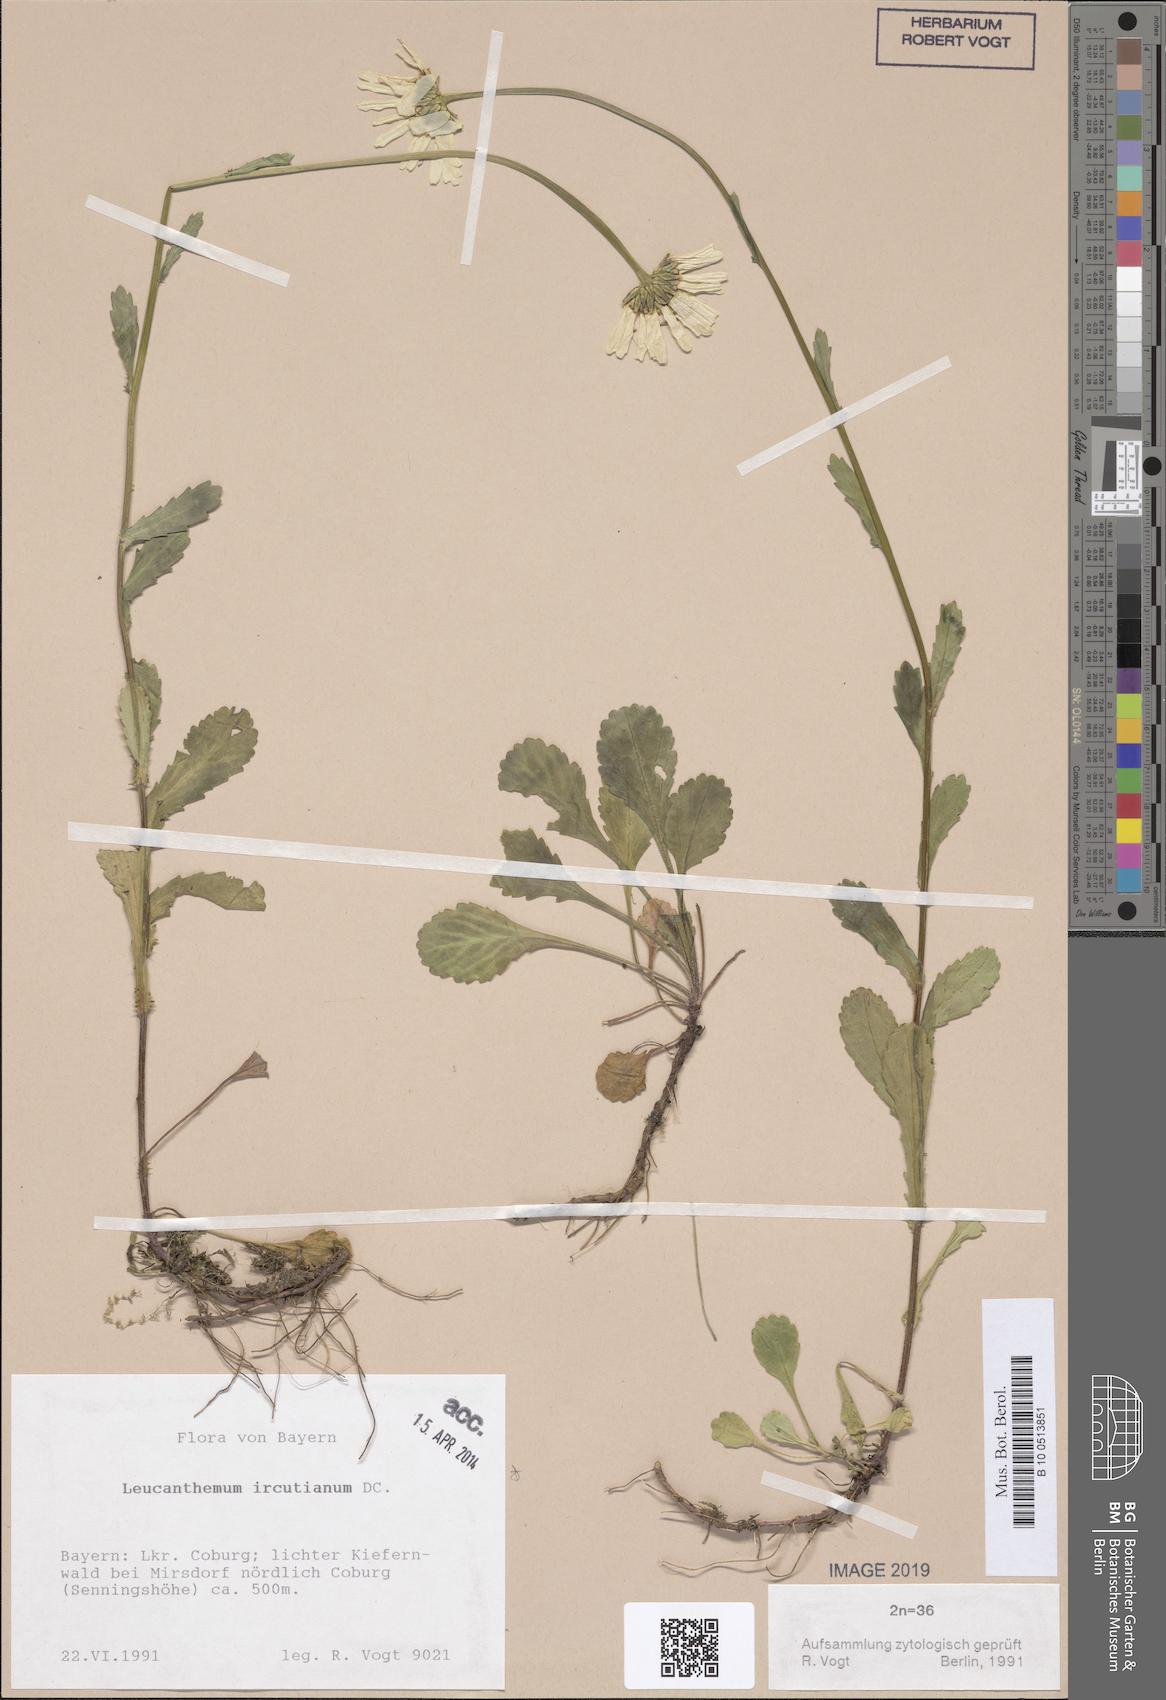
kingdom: Plantae
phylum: Tracheophyta
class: Magnoliopsida
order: Asterales
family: Asteraceae
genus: Leucanthemum
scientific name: Leucanthemum ircutianum
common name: Daisy
